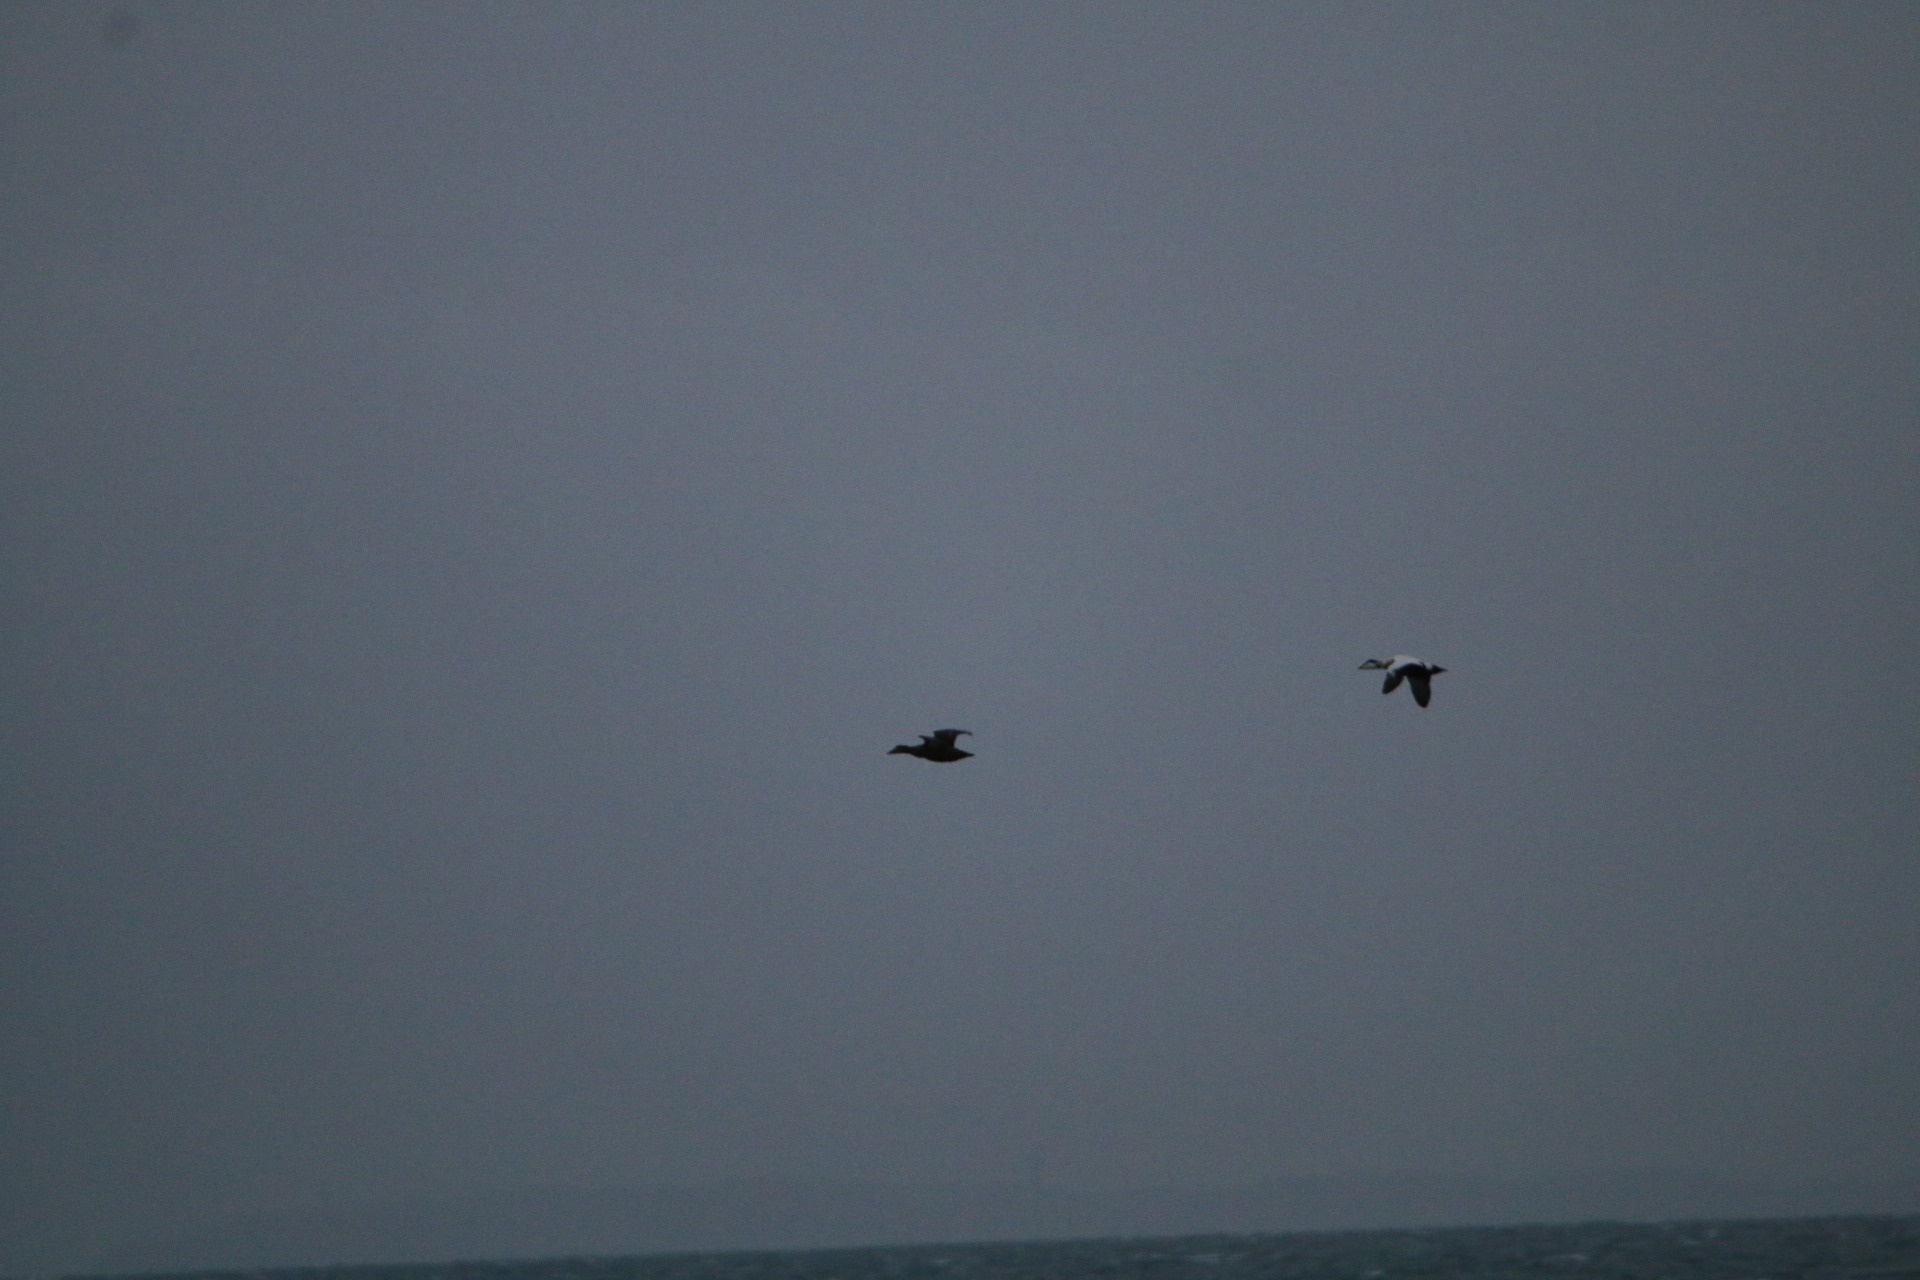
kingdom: Animalia
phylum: Chordata
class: Aves
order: Anseriformes
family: Anatidae
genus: Somateria
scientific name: Somateria mollissima
